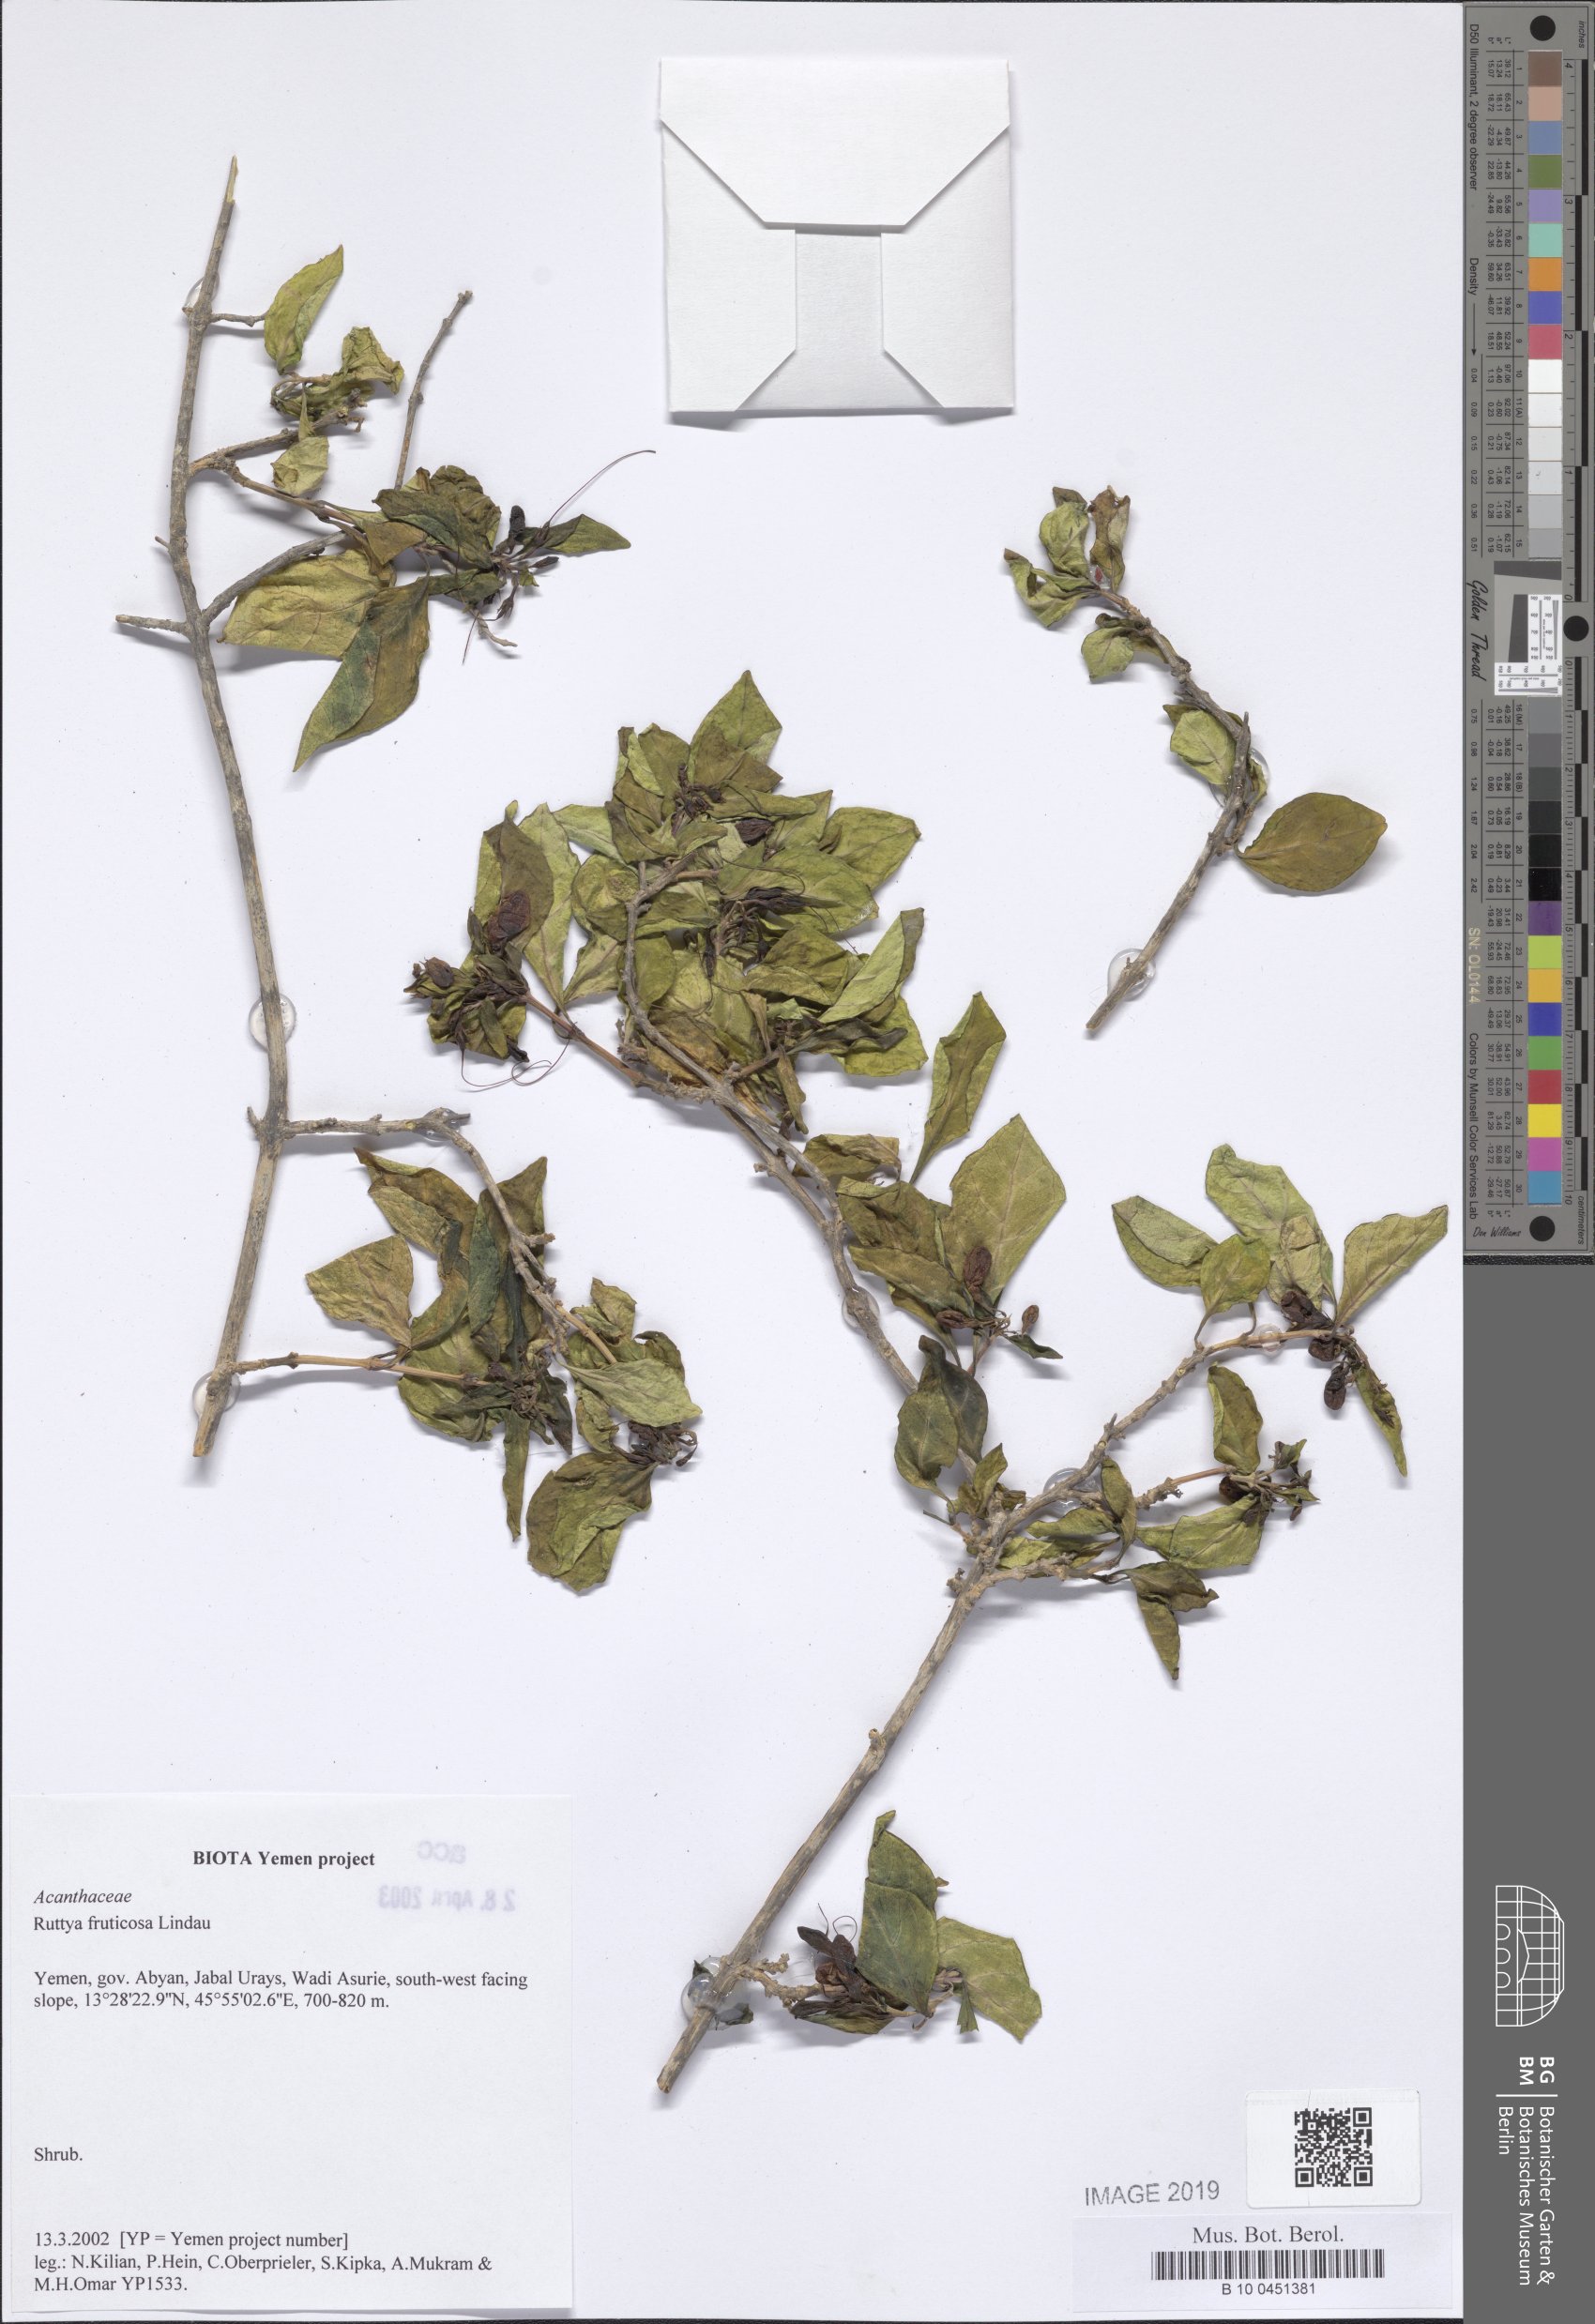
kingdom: Plantae
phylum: Tracheophyta
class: Magnoliopsida
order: Lamiales
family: Acanthaceae
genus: Ruttya
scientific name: Ruttya fruticosa
